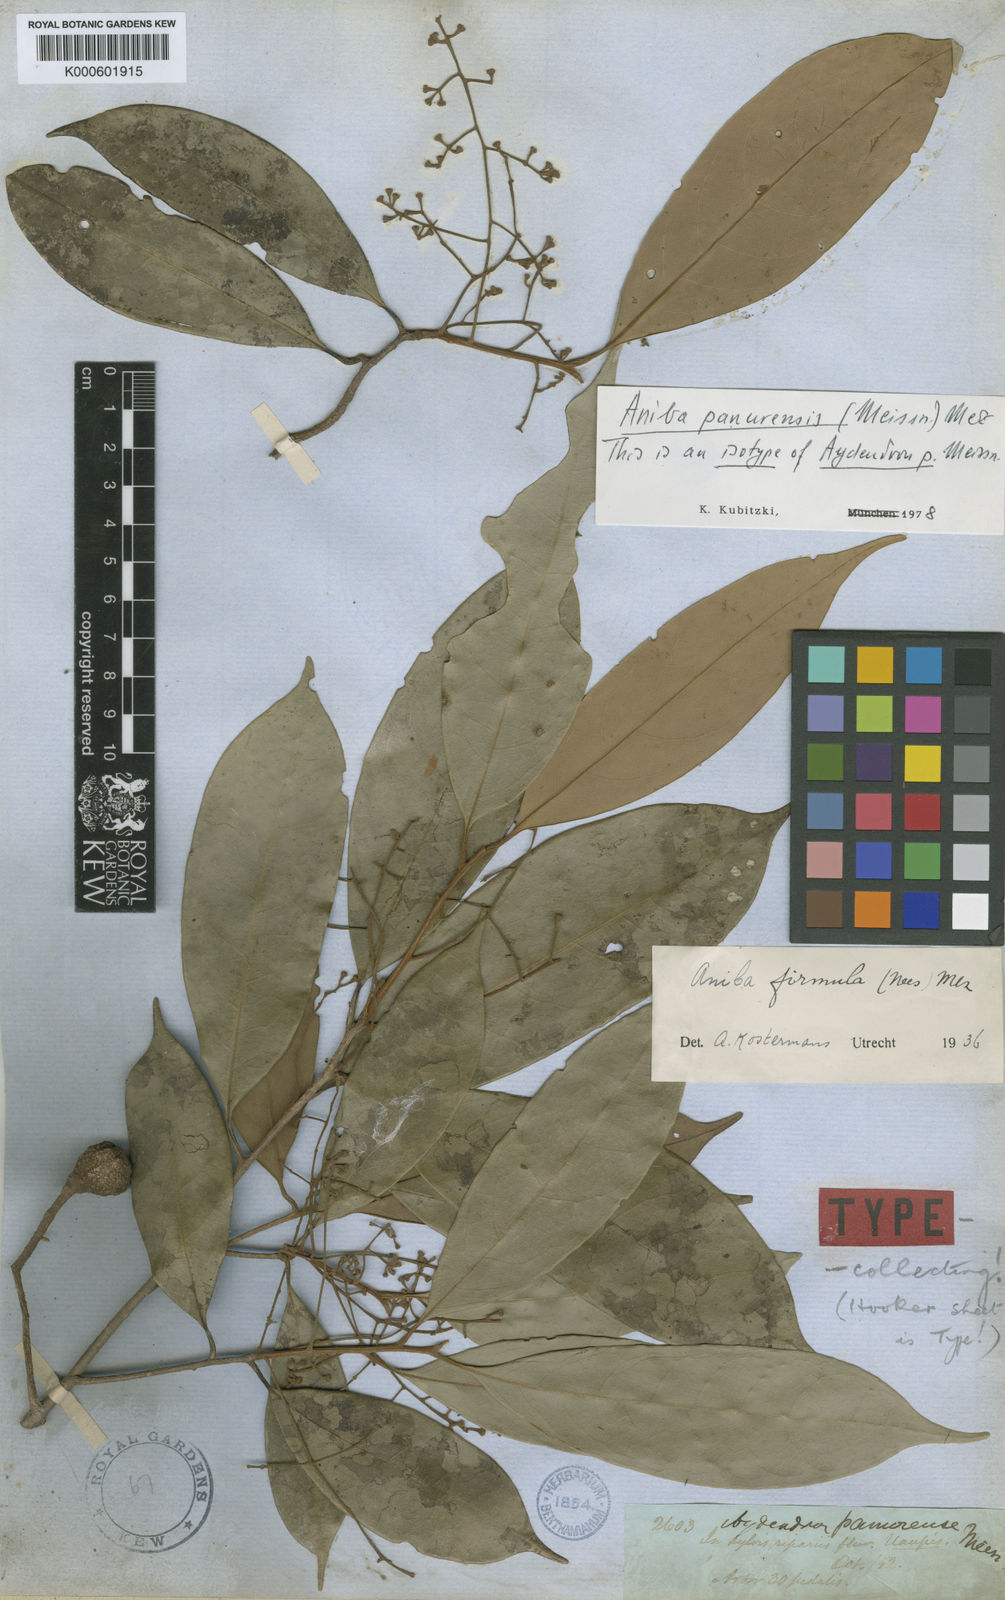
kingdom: Plantae
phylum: Tracheophyta
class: Magnoliopsida
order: Laurales
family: Lauraceae
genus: Aniba
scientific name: Aniba panurensis
